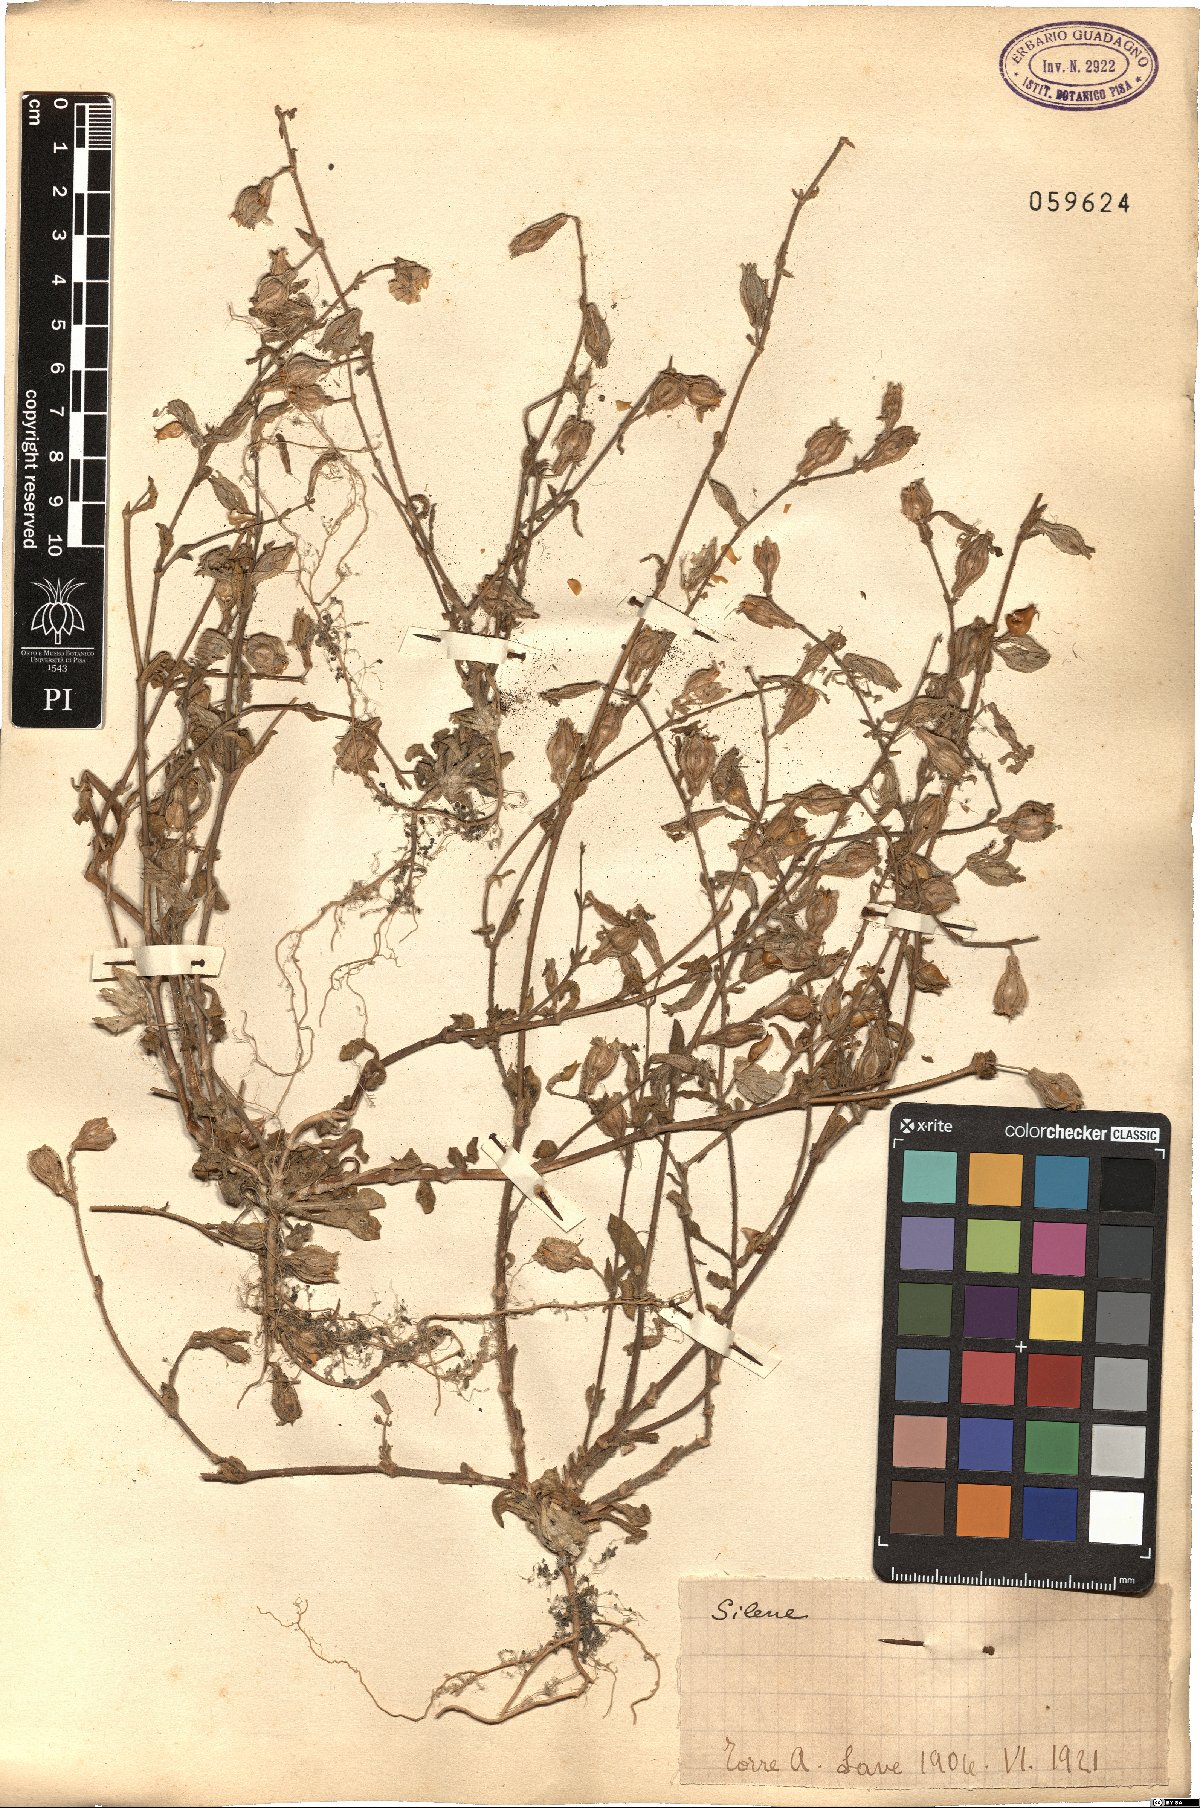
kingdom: Plantae
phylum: Tracheophyta
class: Magnoliopsida
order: Caryophyllales
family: Caryophyllaceae
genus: Silene
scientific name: Silene
